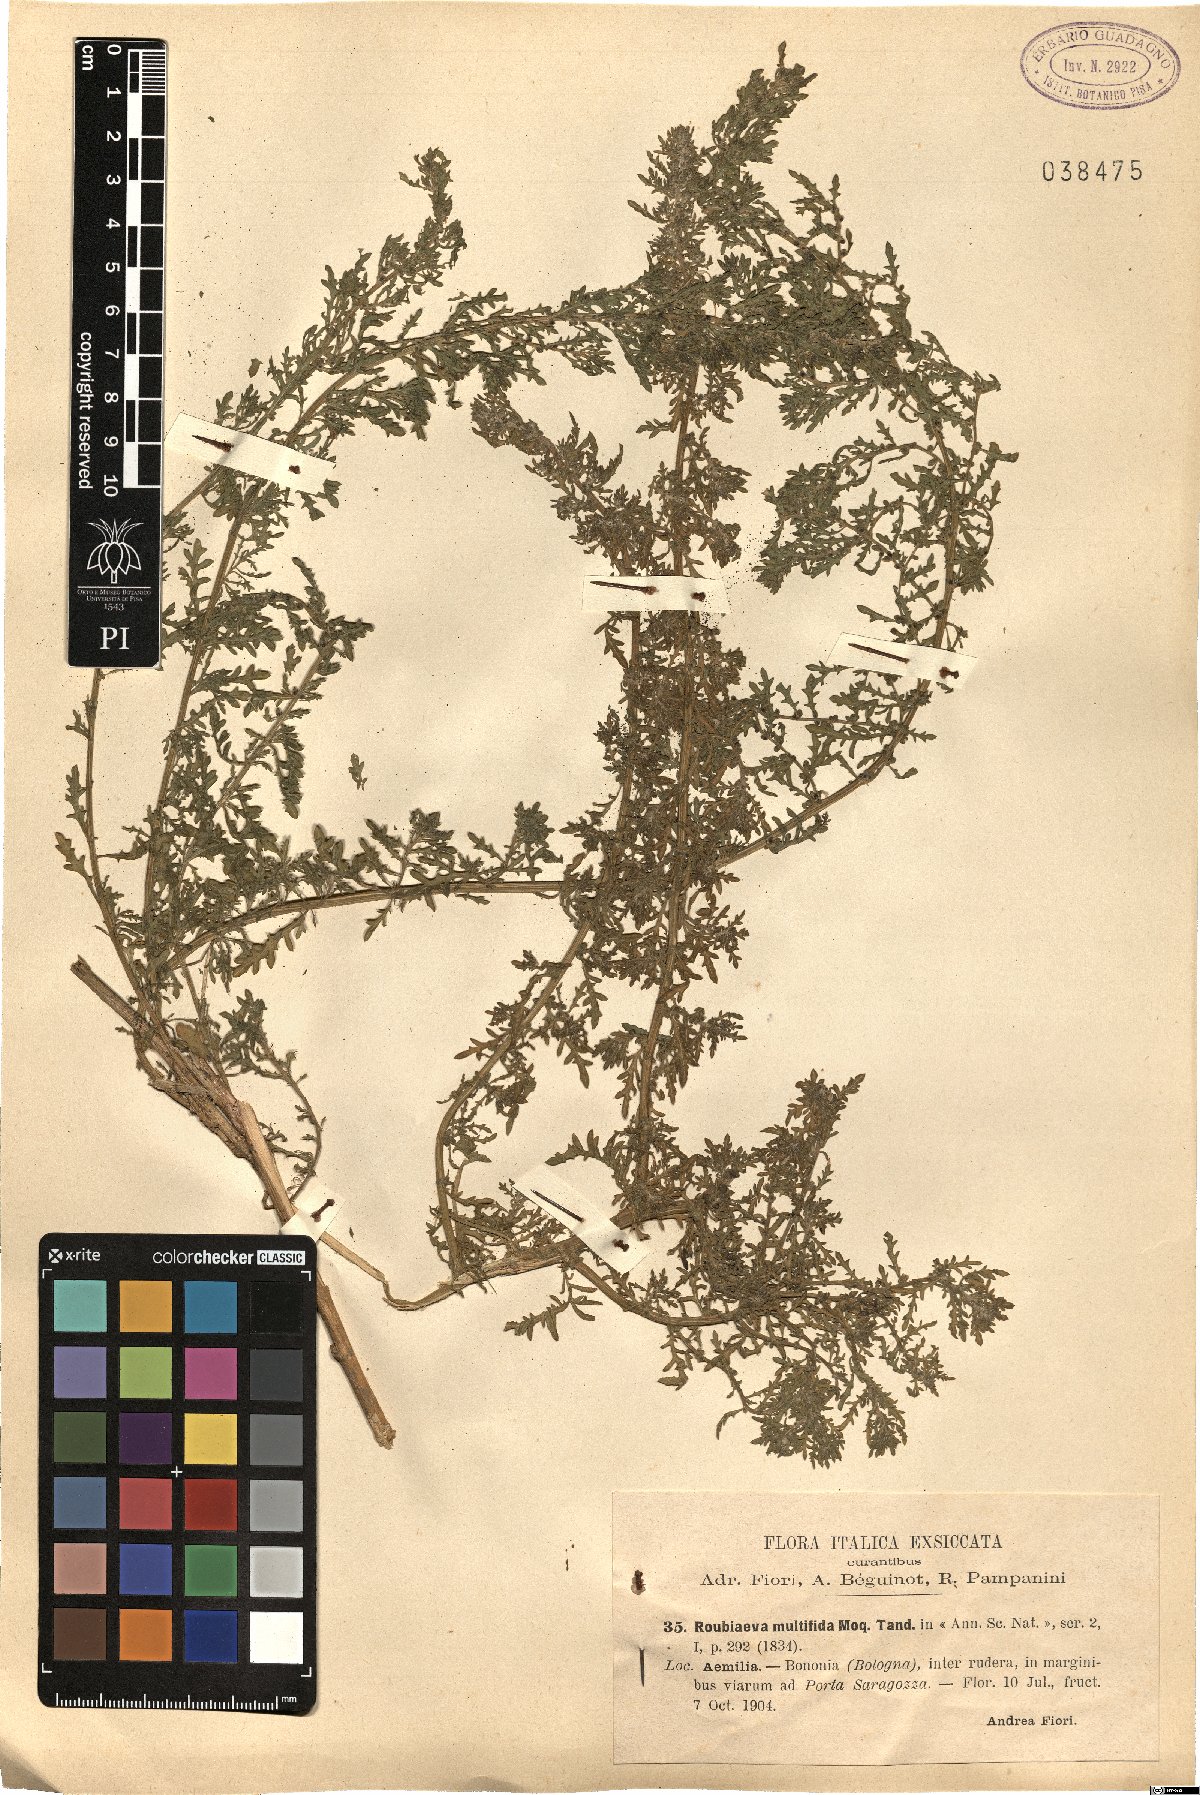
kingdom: Plantae
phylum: Tracheophyta
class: Magnoliopsida
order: Caryophyllales
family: Amaranthaceae
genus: Dysphania
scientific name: Dysphania multifida
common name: Cutleaf goosefoot
